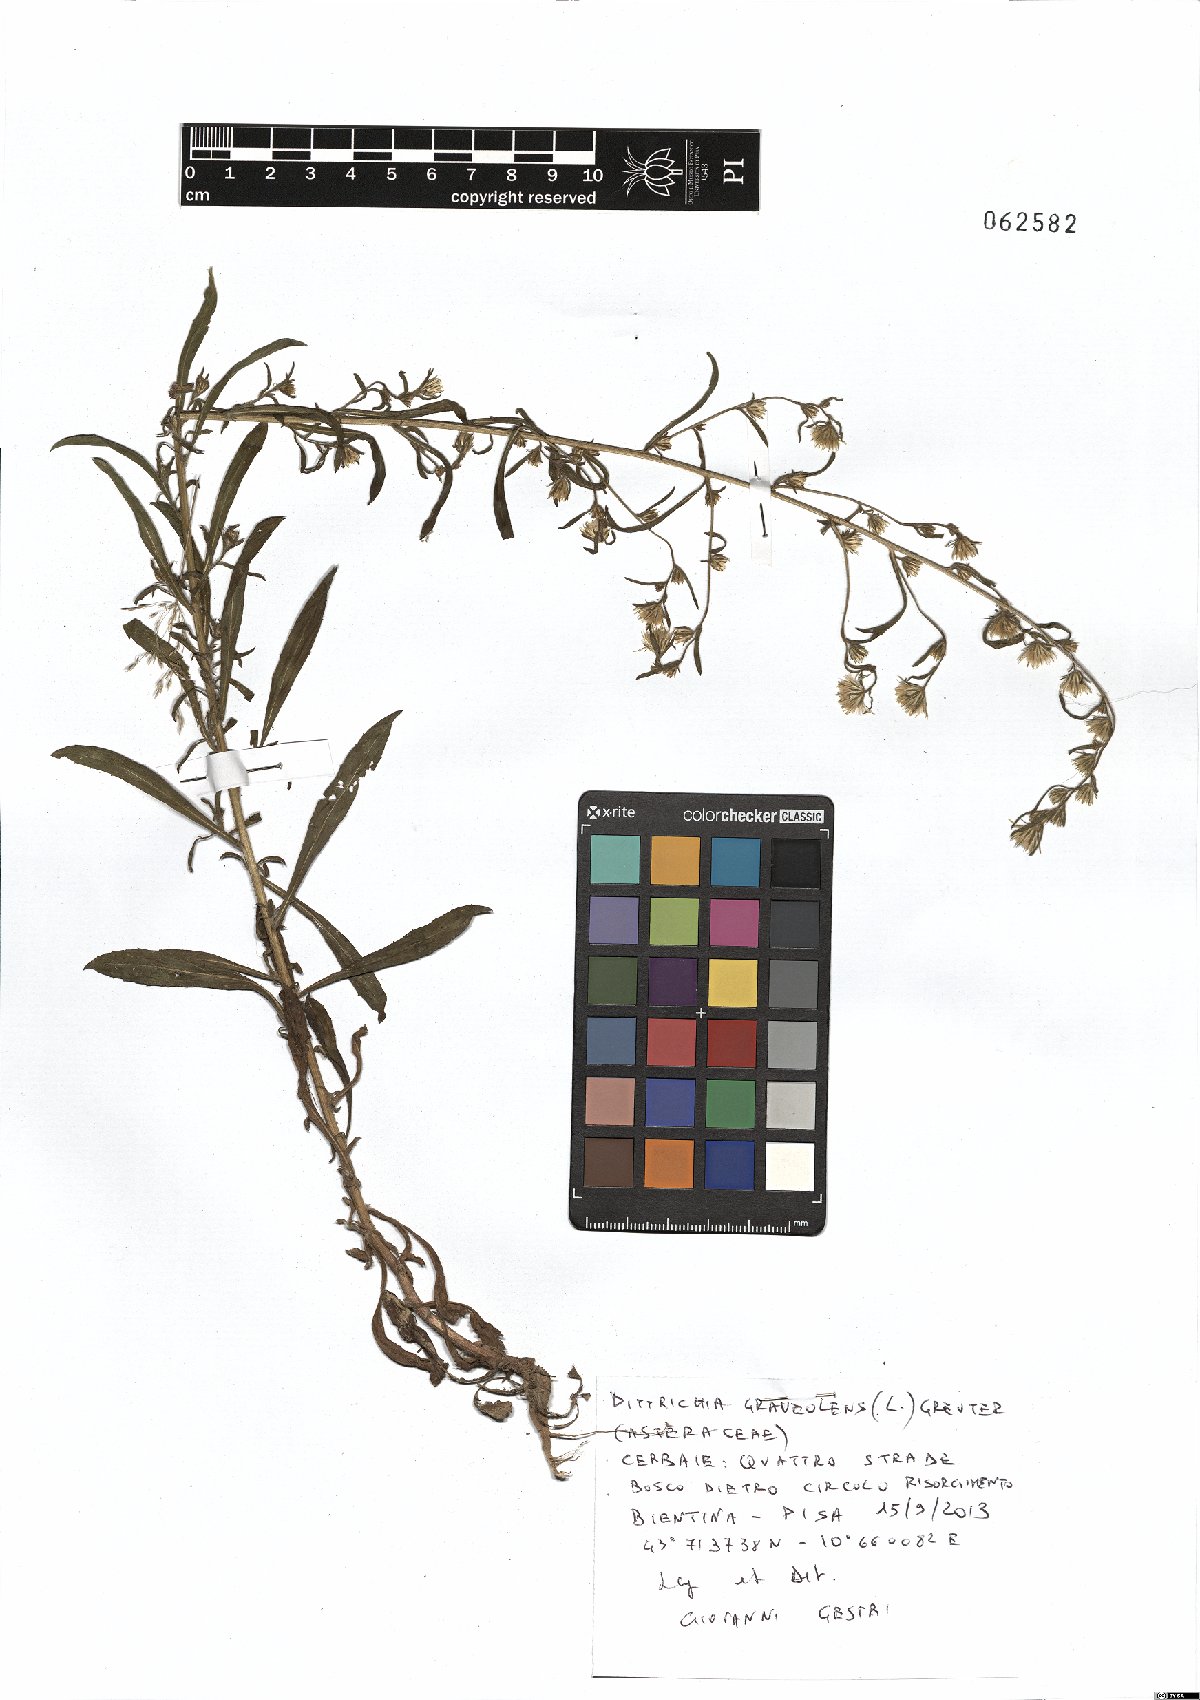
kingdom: Plantae
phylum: Tracheophyta
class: Magnoliopsida
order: Asterales
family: Asteraceae
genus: Dittrichia
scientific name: Dittrichia graveolens
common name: Stinking fleabane
